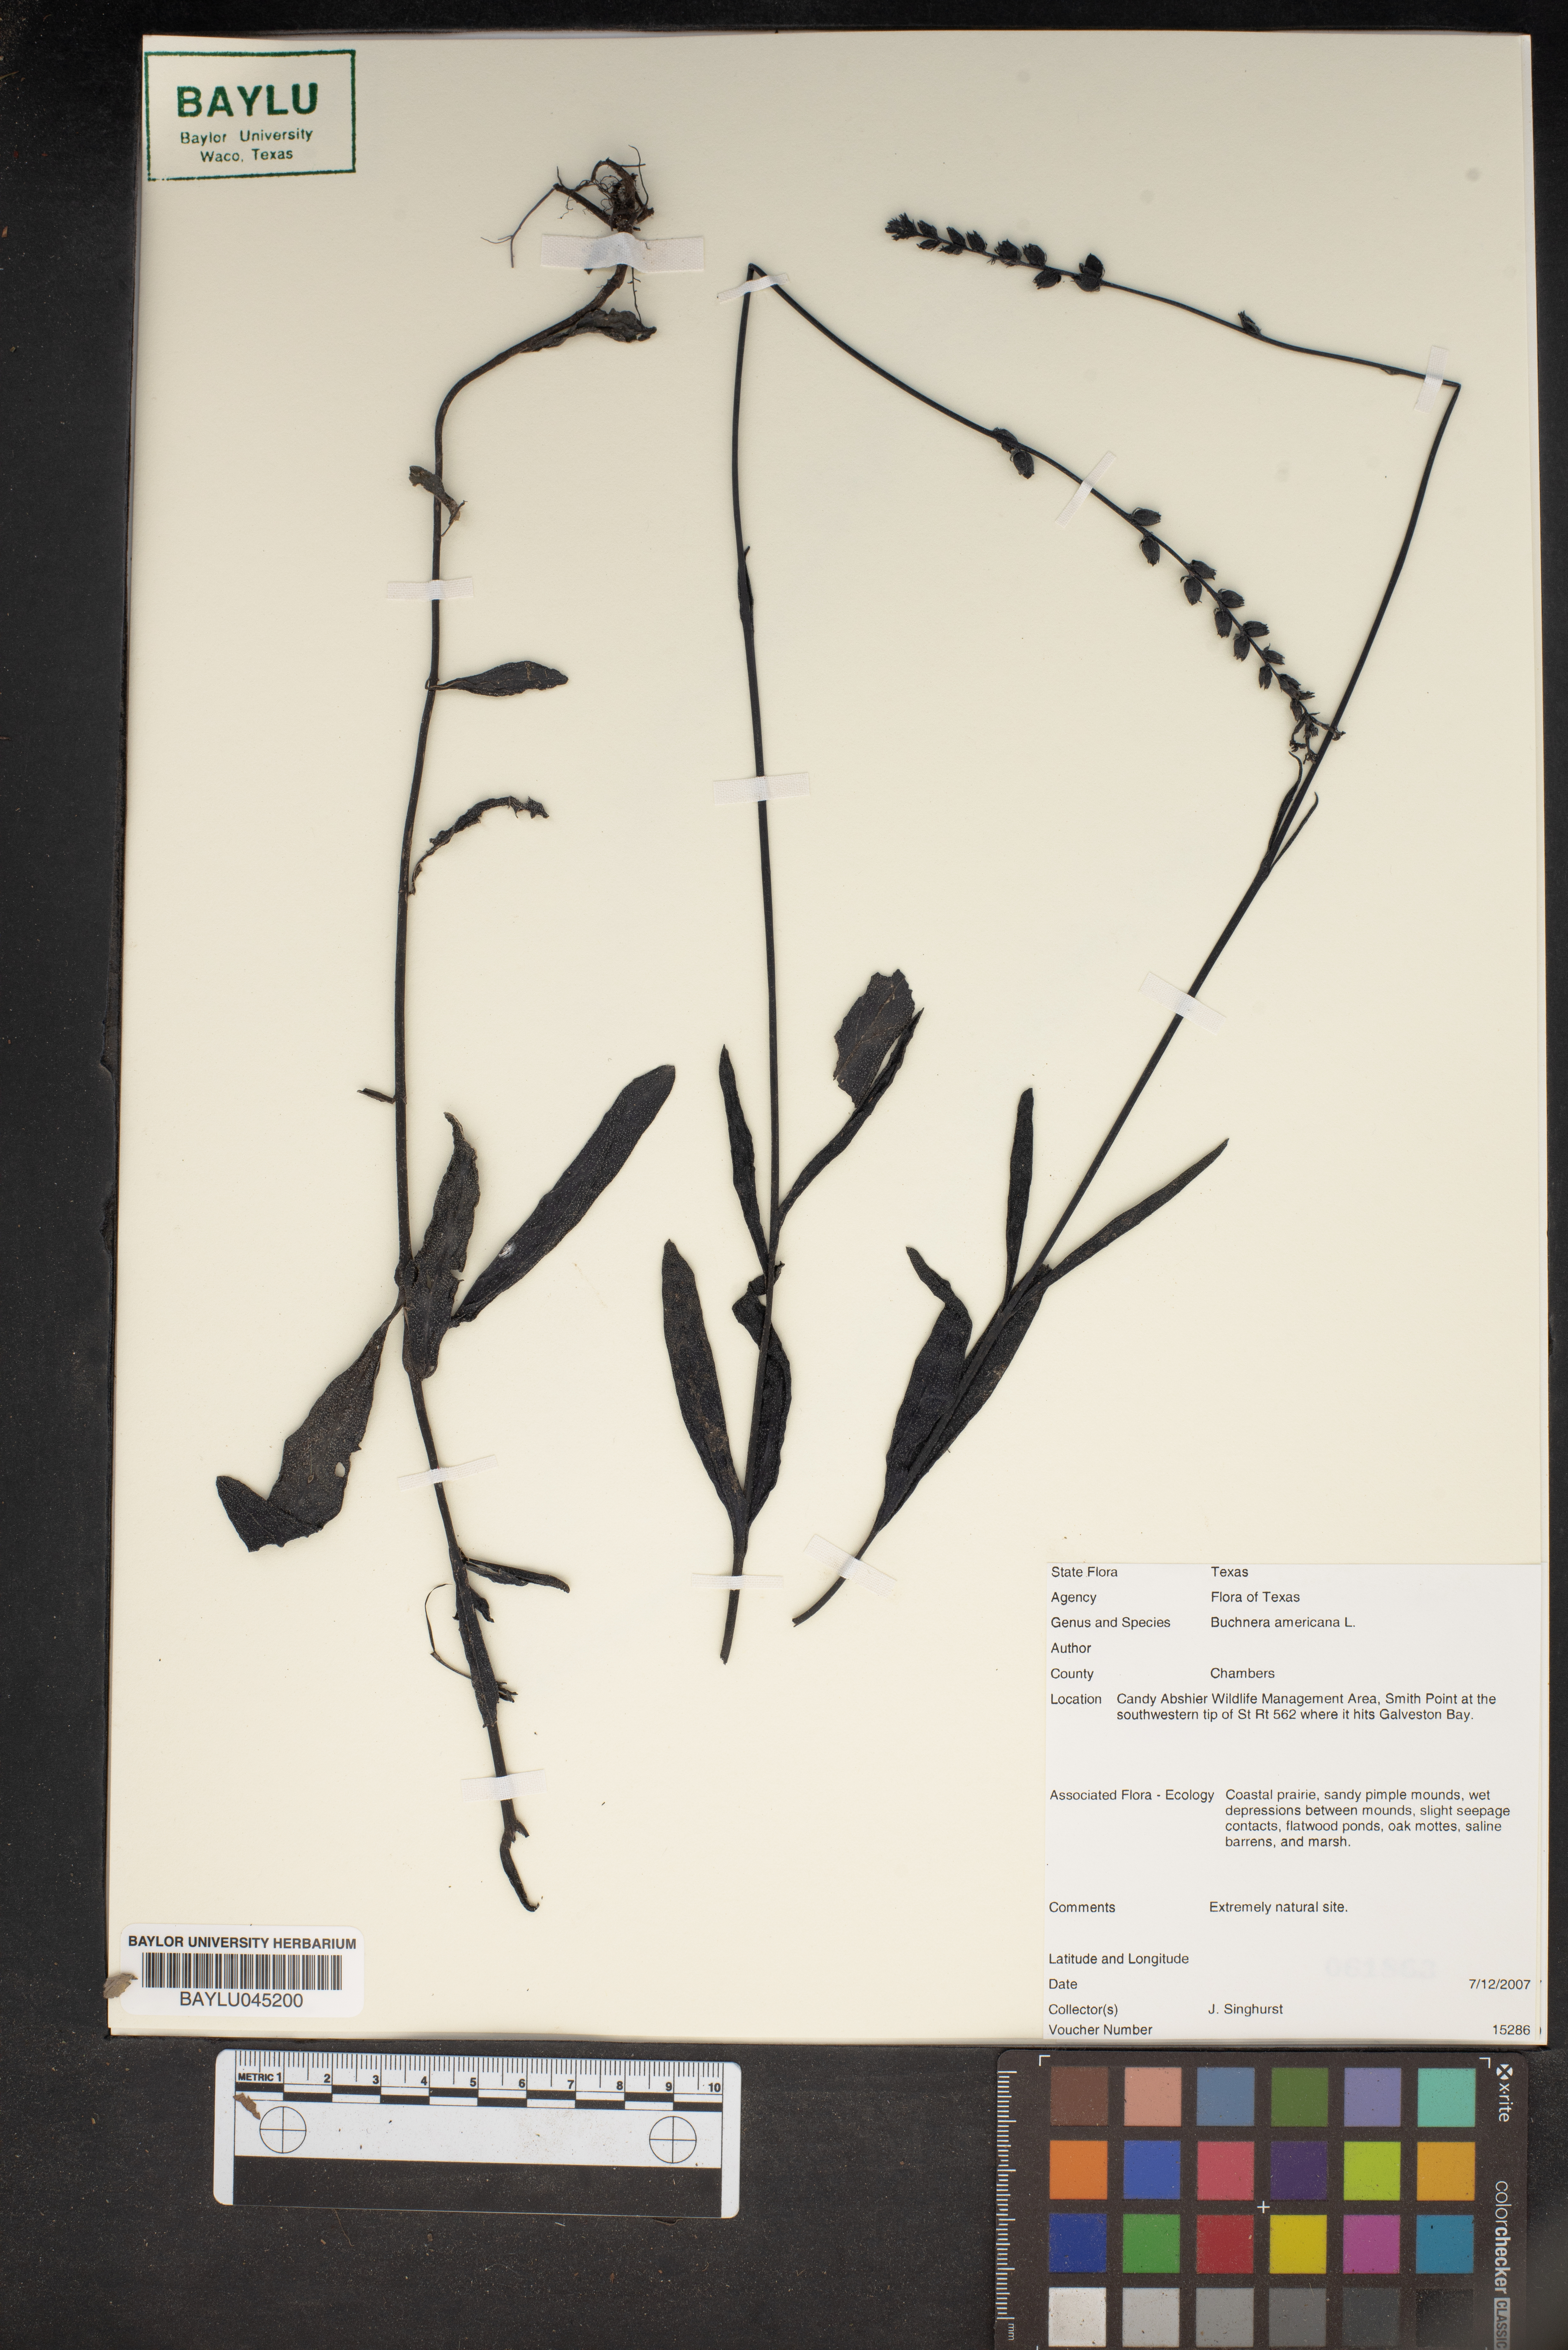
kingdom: Plantae
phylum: Tracheophyta
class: Magnoliopsida
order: Lamiales
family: Orobanchaceae
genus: Buchnera
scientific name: Buchnera americana
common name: American bluehearts
